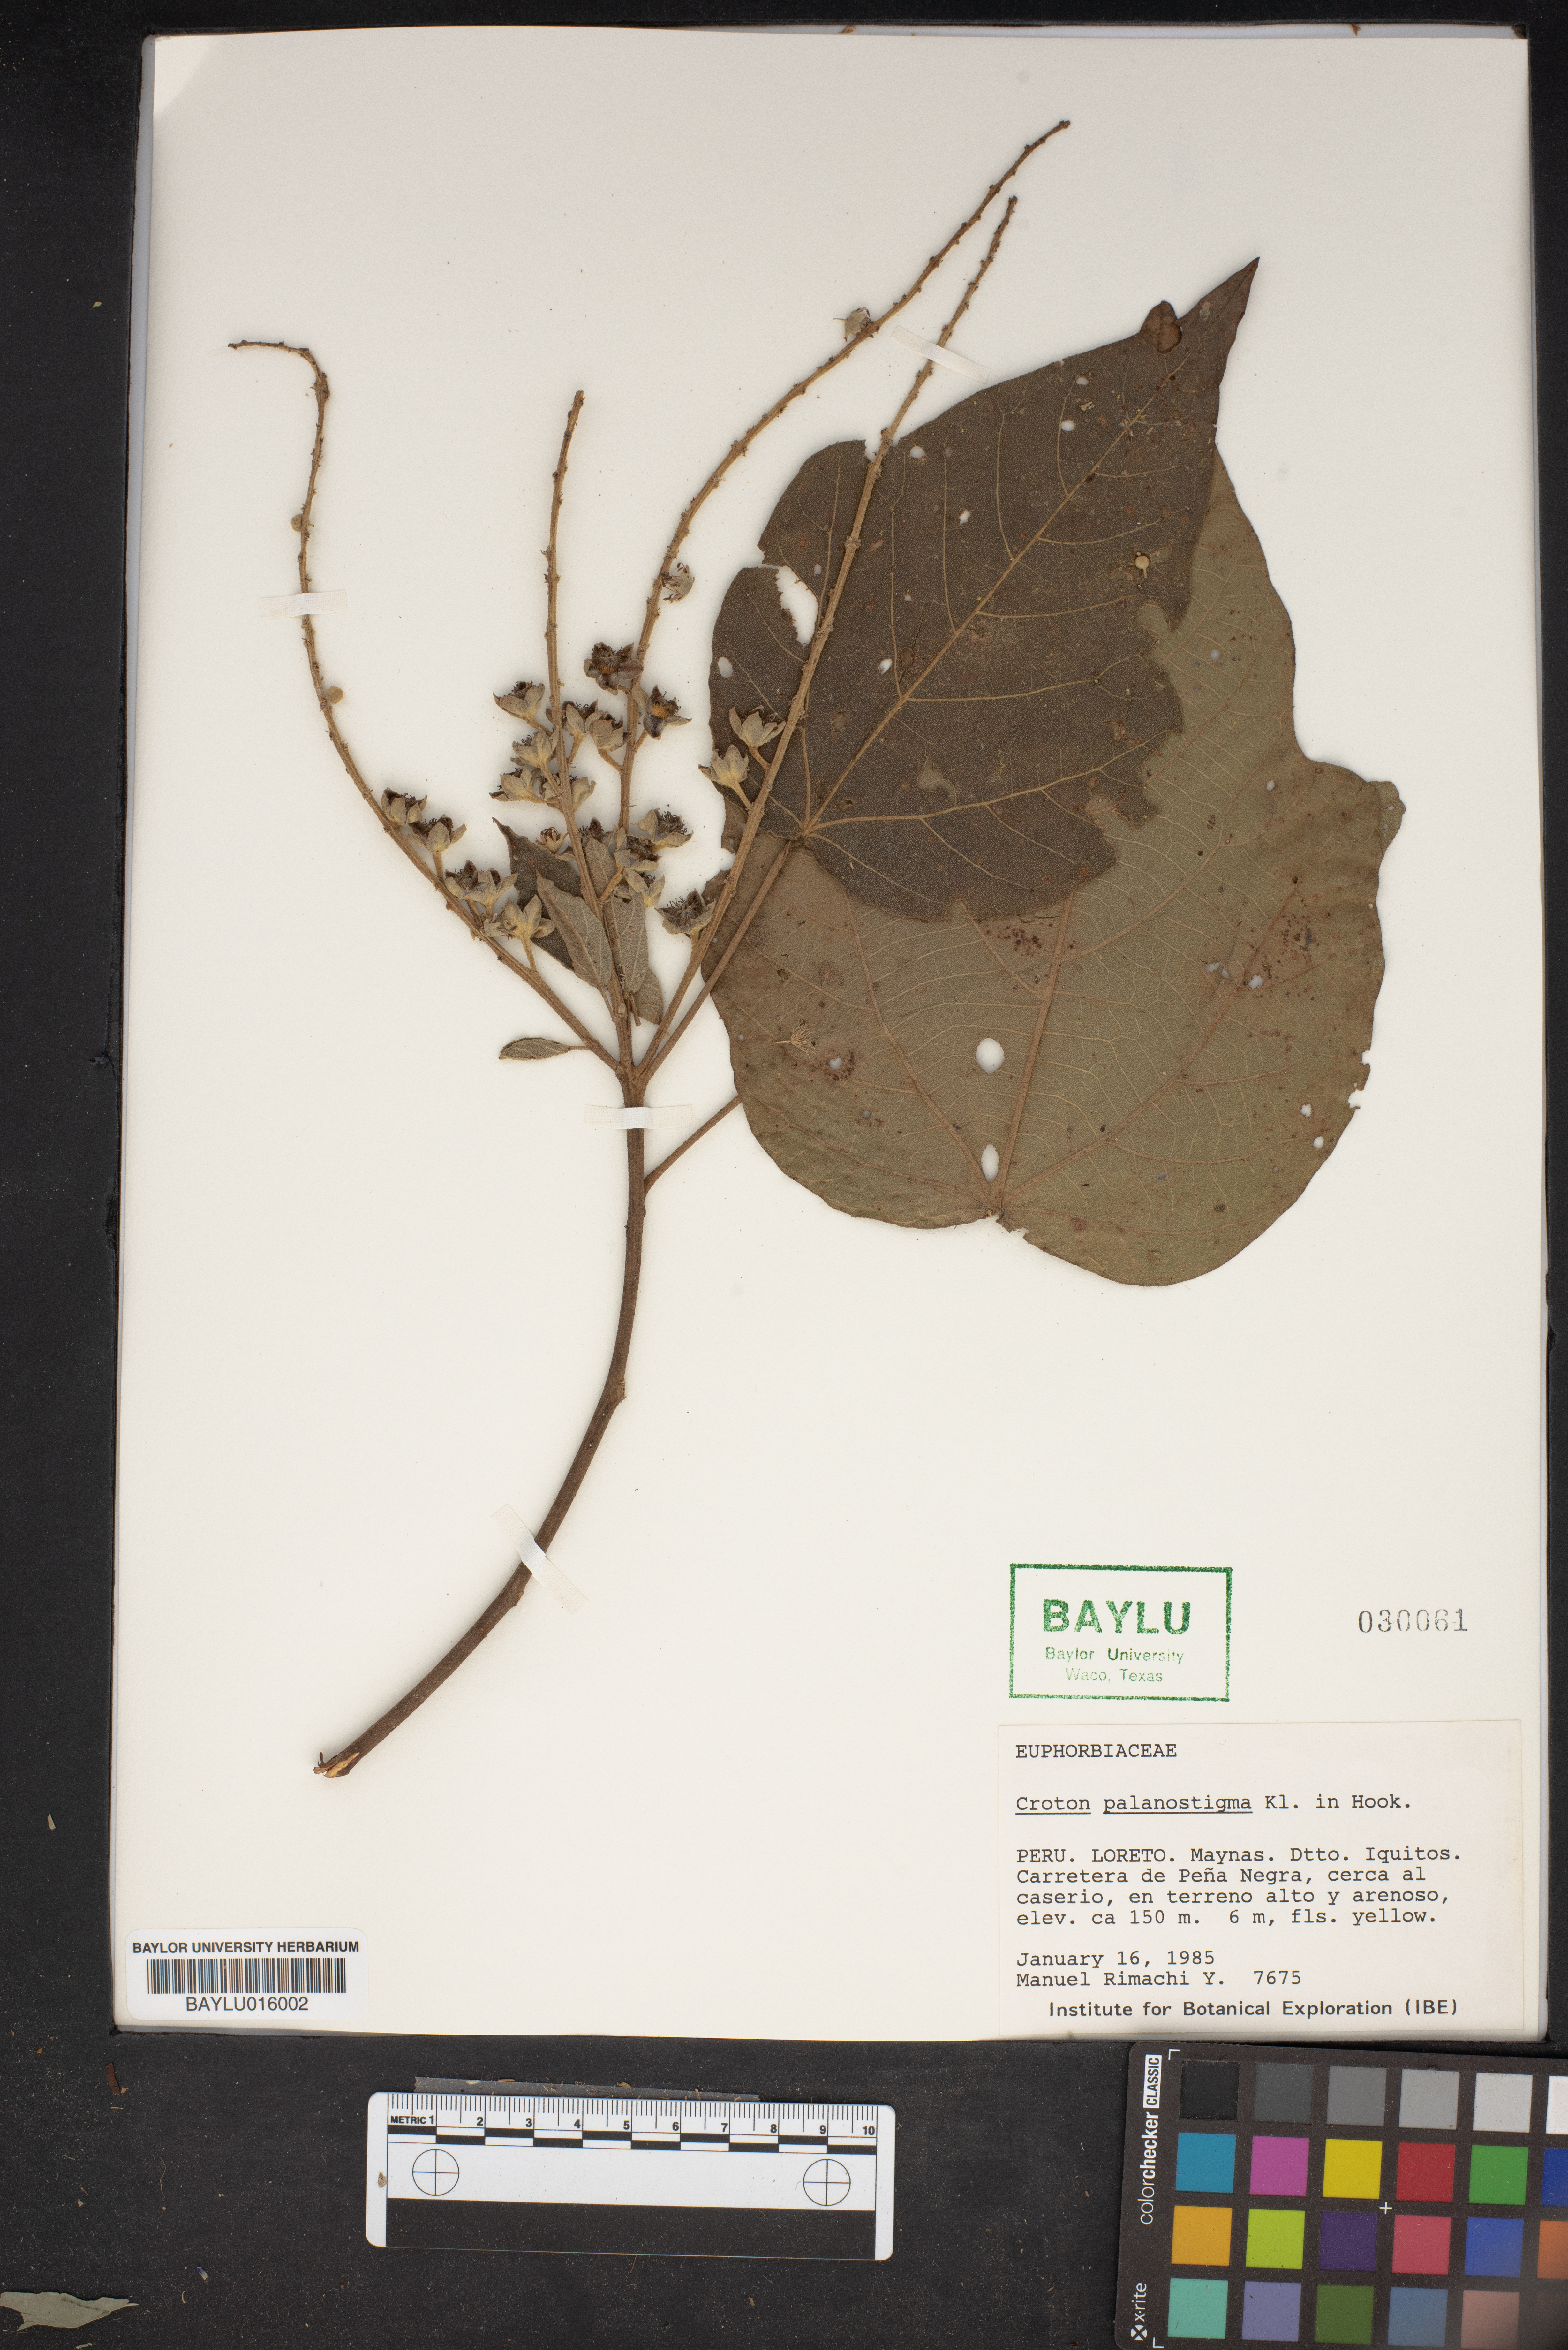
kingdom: Plantae
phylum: Tracheophyta
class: Magnoliopsida
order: Malpighiales
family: Euphorbiaceae
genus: Croton
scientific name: Croton palanostigma
